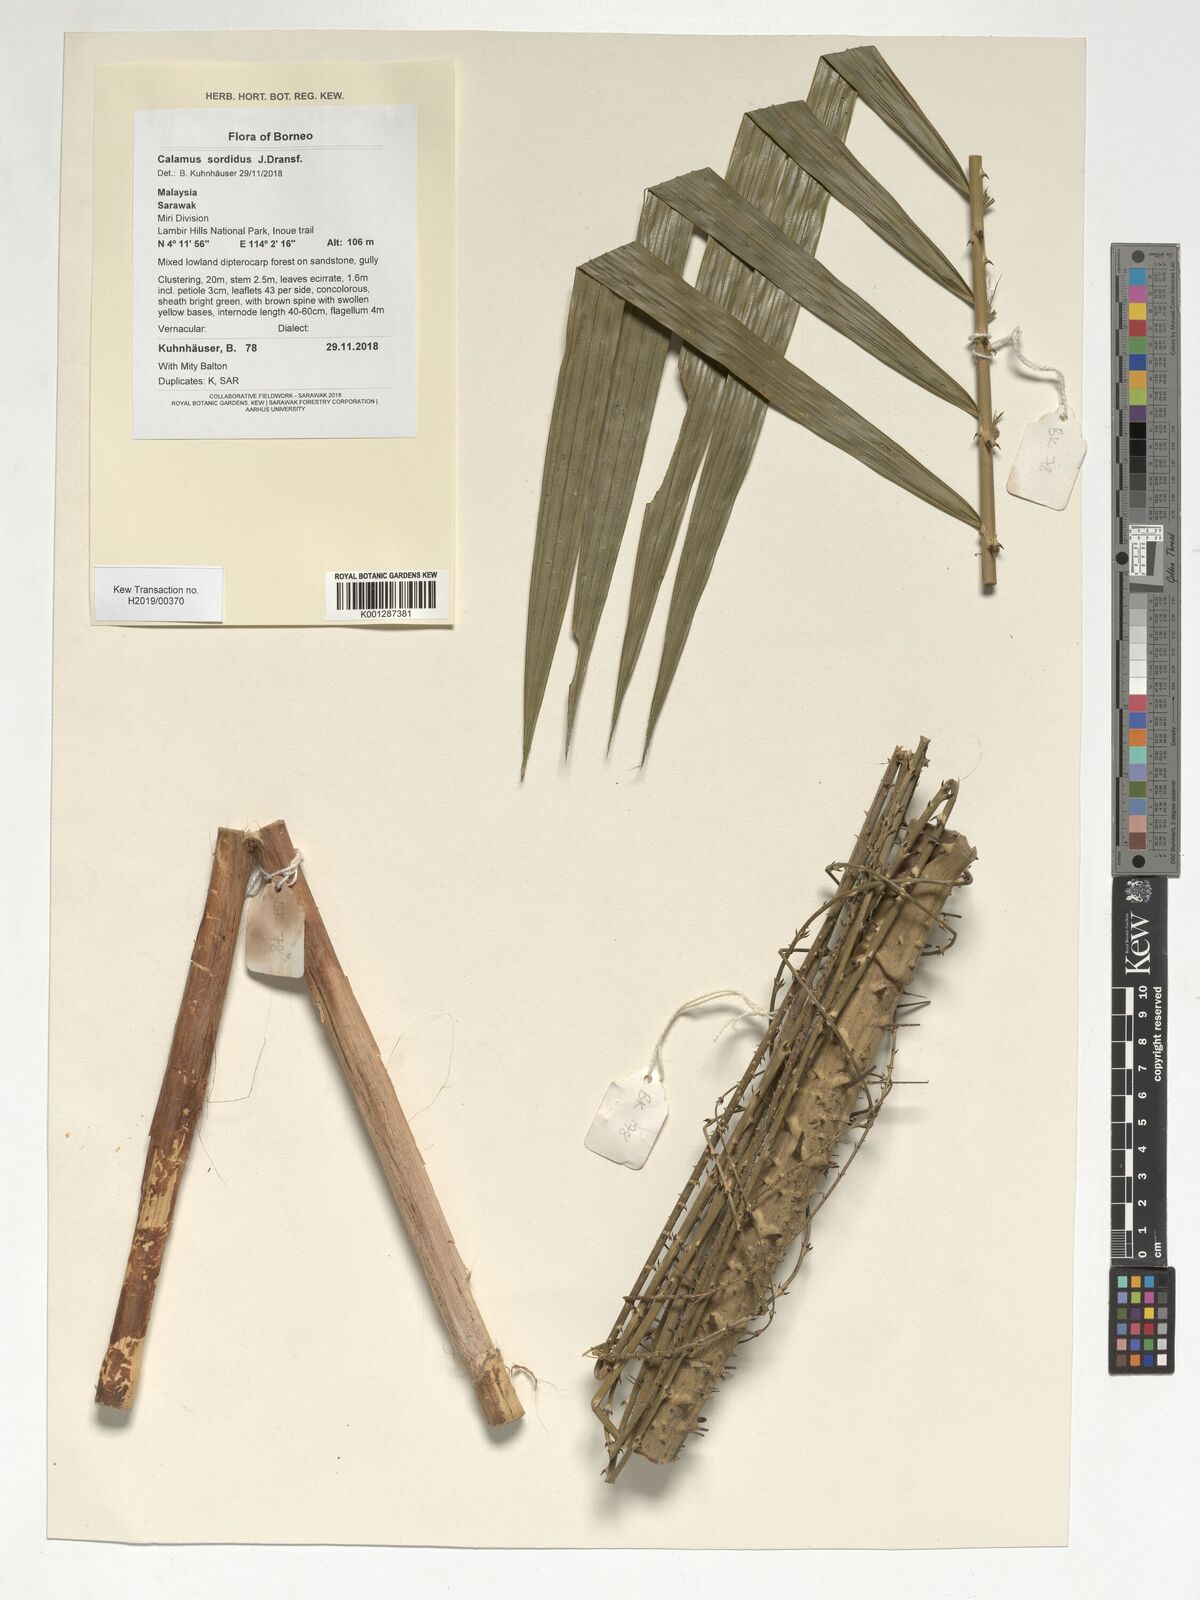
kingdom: Plantae
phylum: Tracheophyta
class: Liliopsida
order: Arecales
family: Arecaceae
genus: Calamus
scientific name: Calamus sordidus
